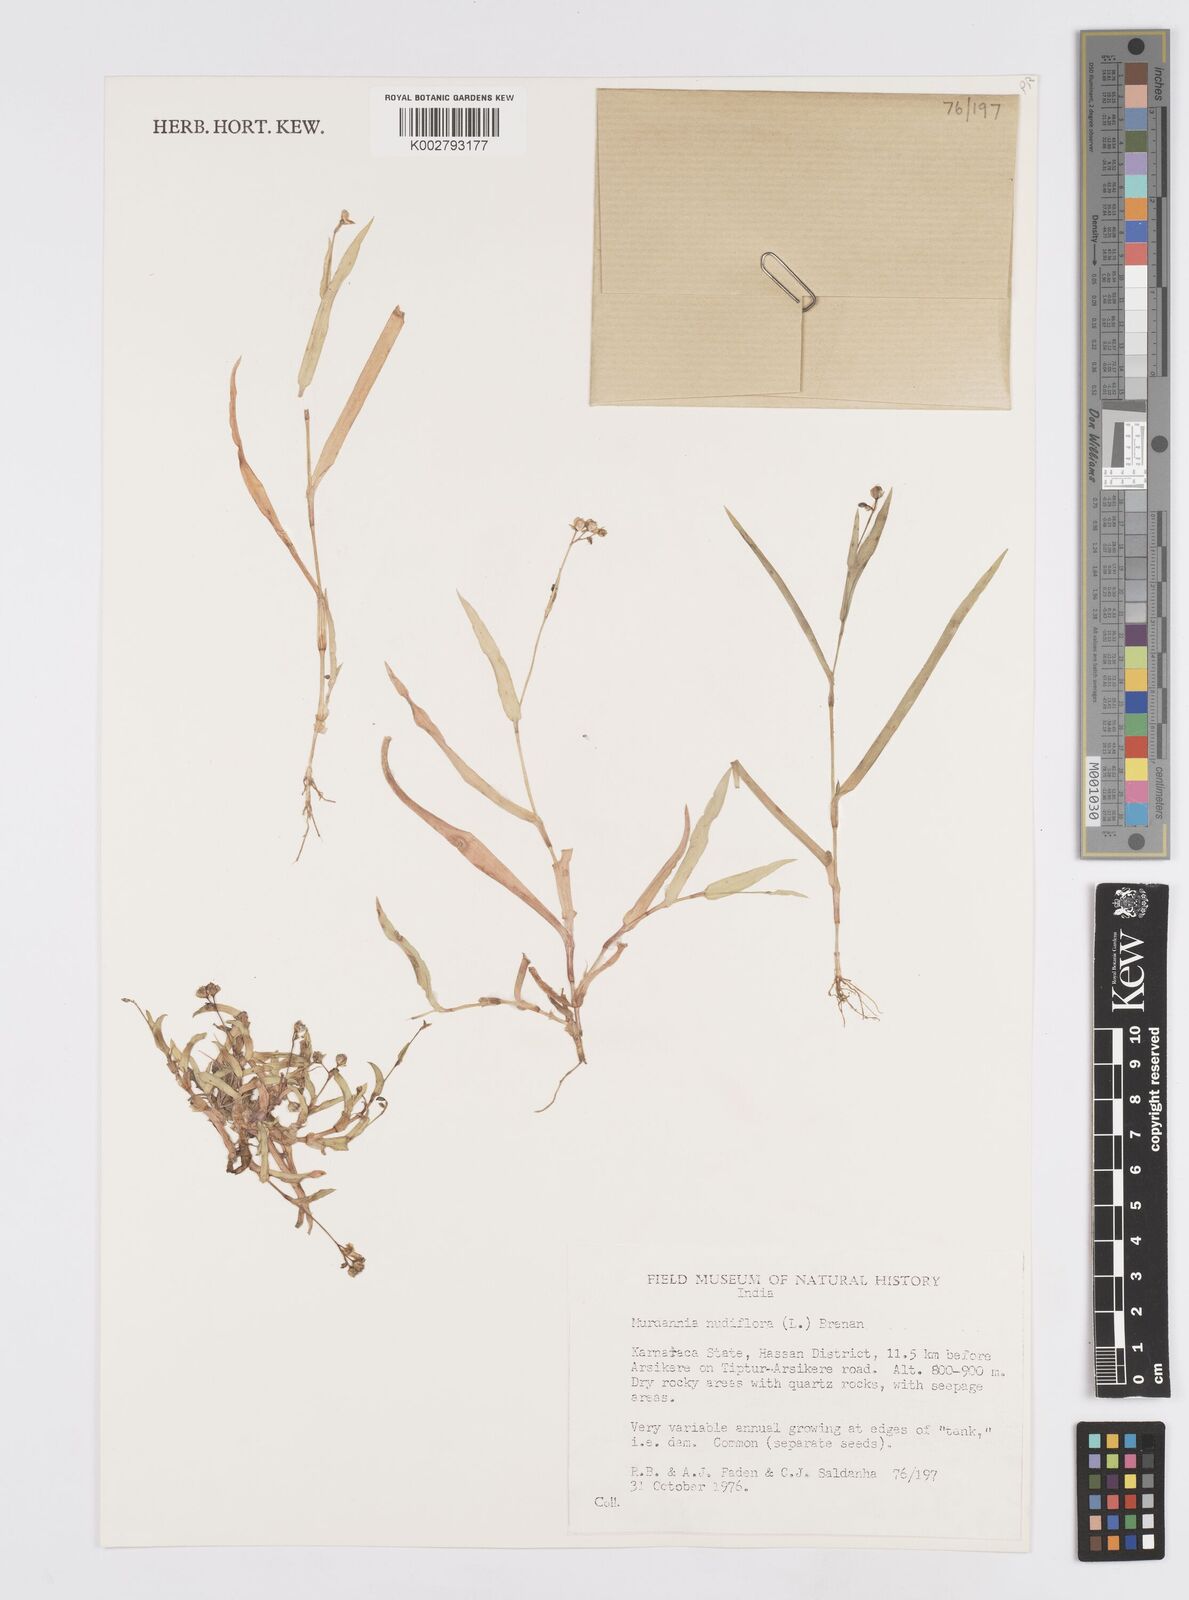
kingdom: Plantae
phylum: Tracheophyta
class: Liliopsida
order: Commelinales
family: Commelinaceae
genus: Murdannia
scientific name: Murdannia nudiflora
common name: Nakedstem dewflower
